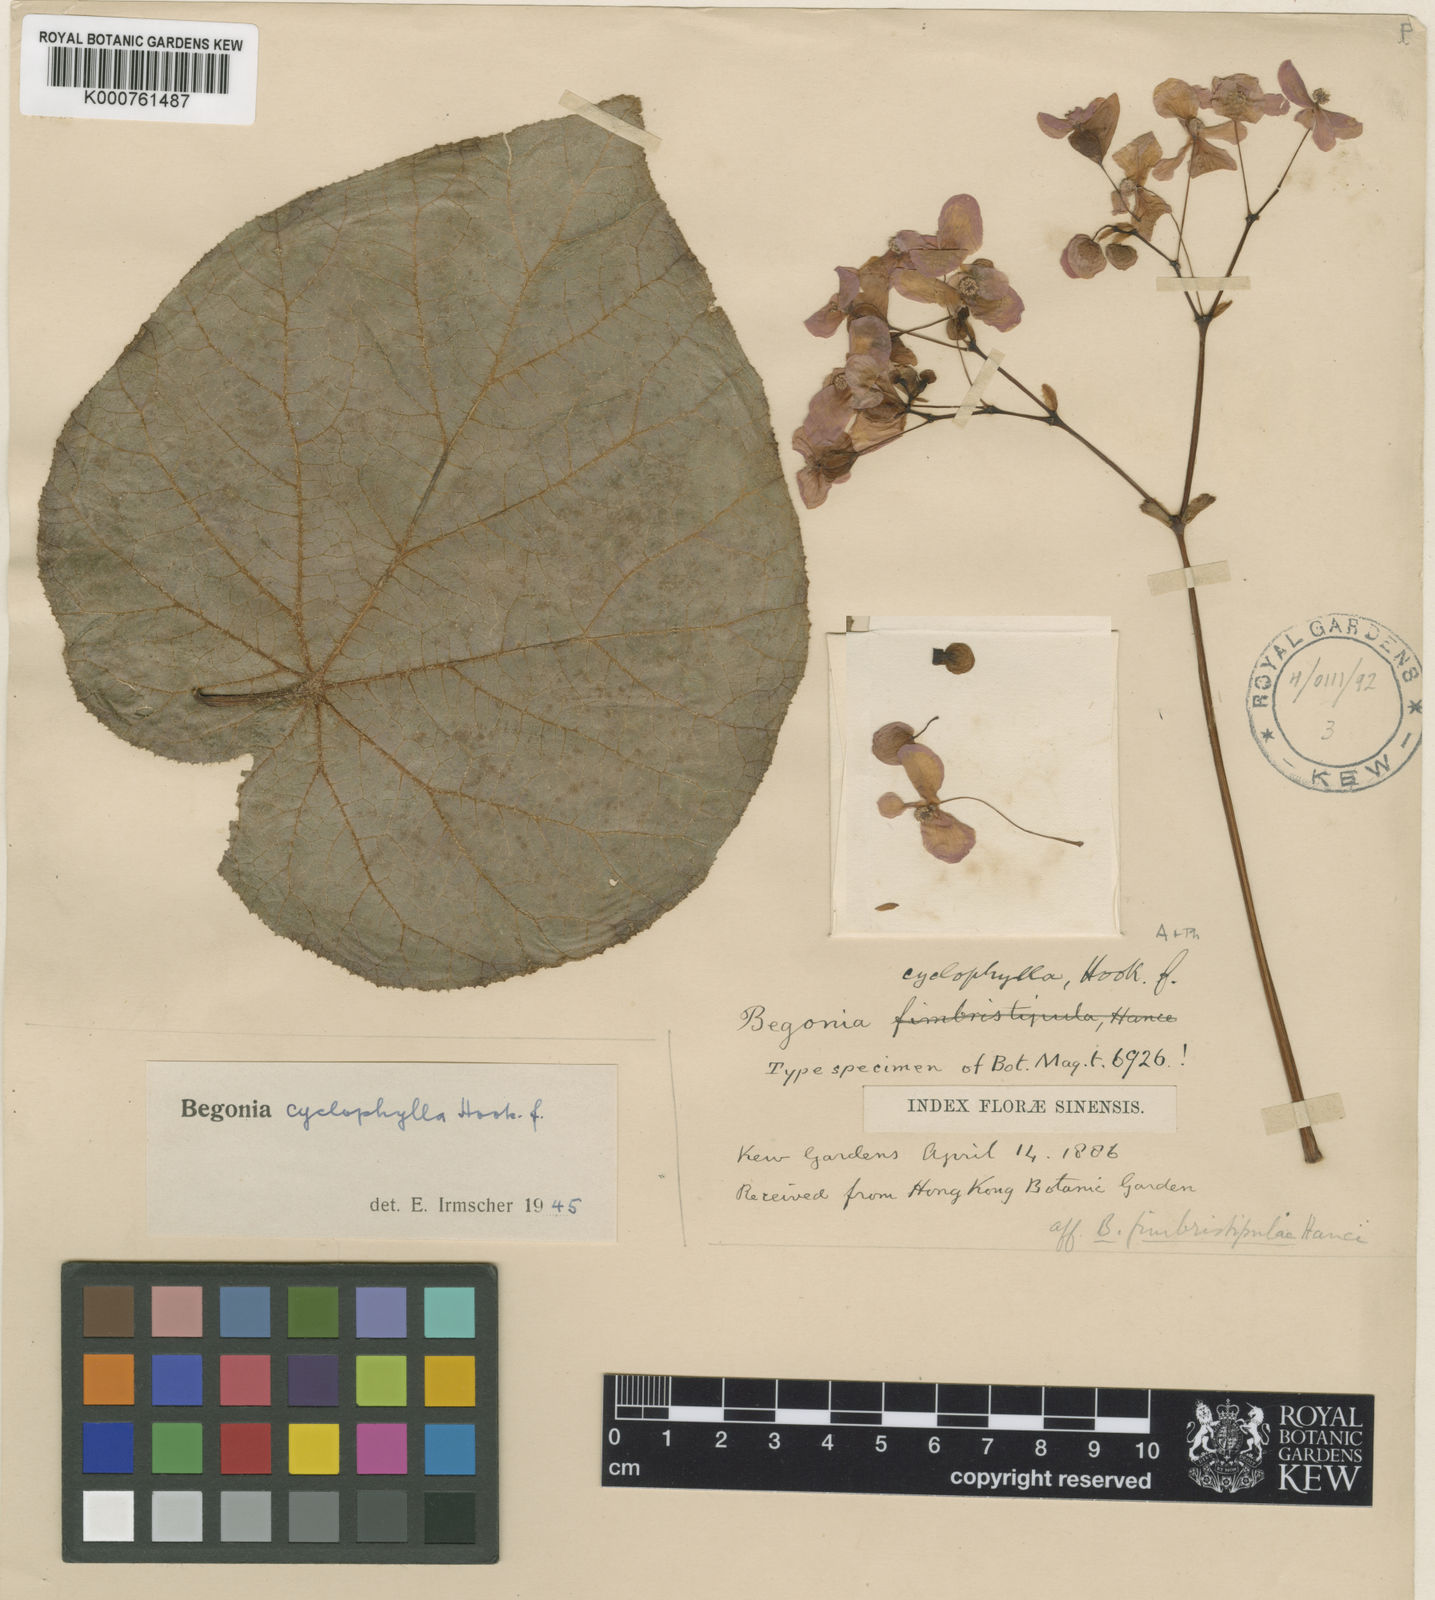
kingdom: Plantae
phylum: Tracheophyta
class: Magnoliopsida
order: Cucurbitales
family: Begoniaceae
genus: Begonia
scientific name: Begonia fimbristipula
